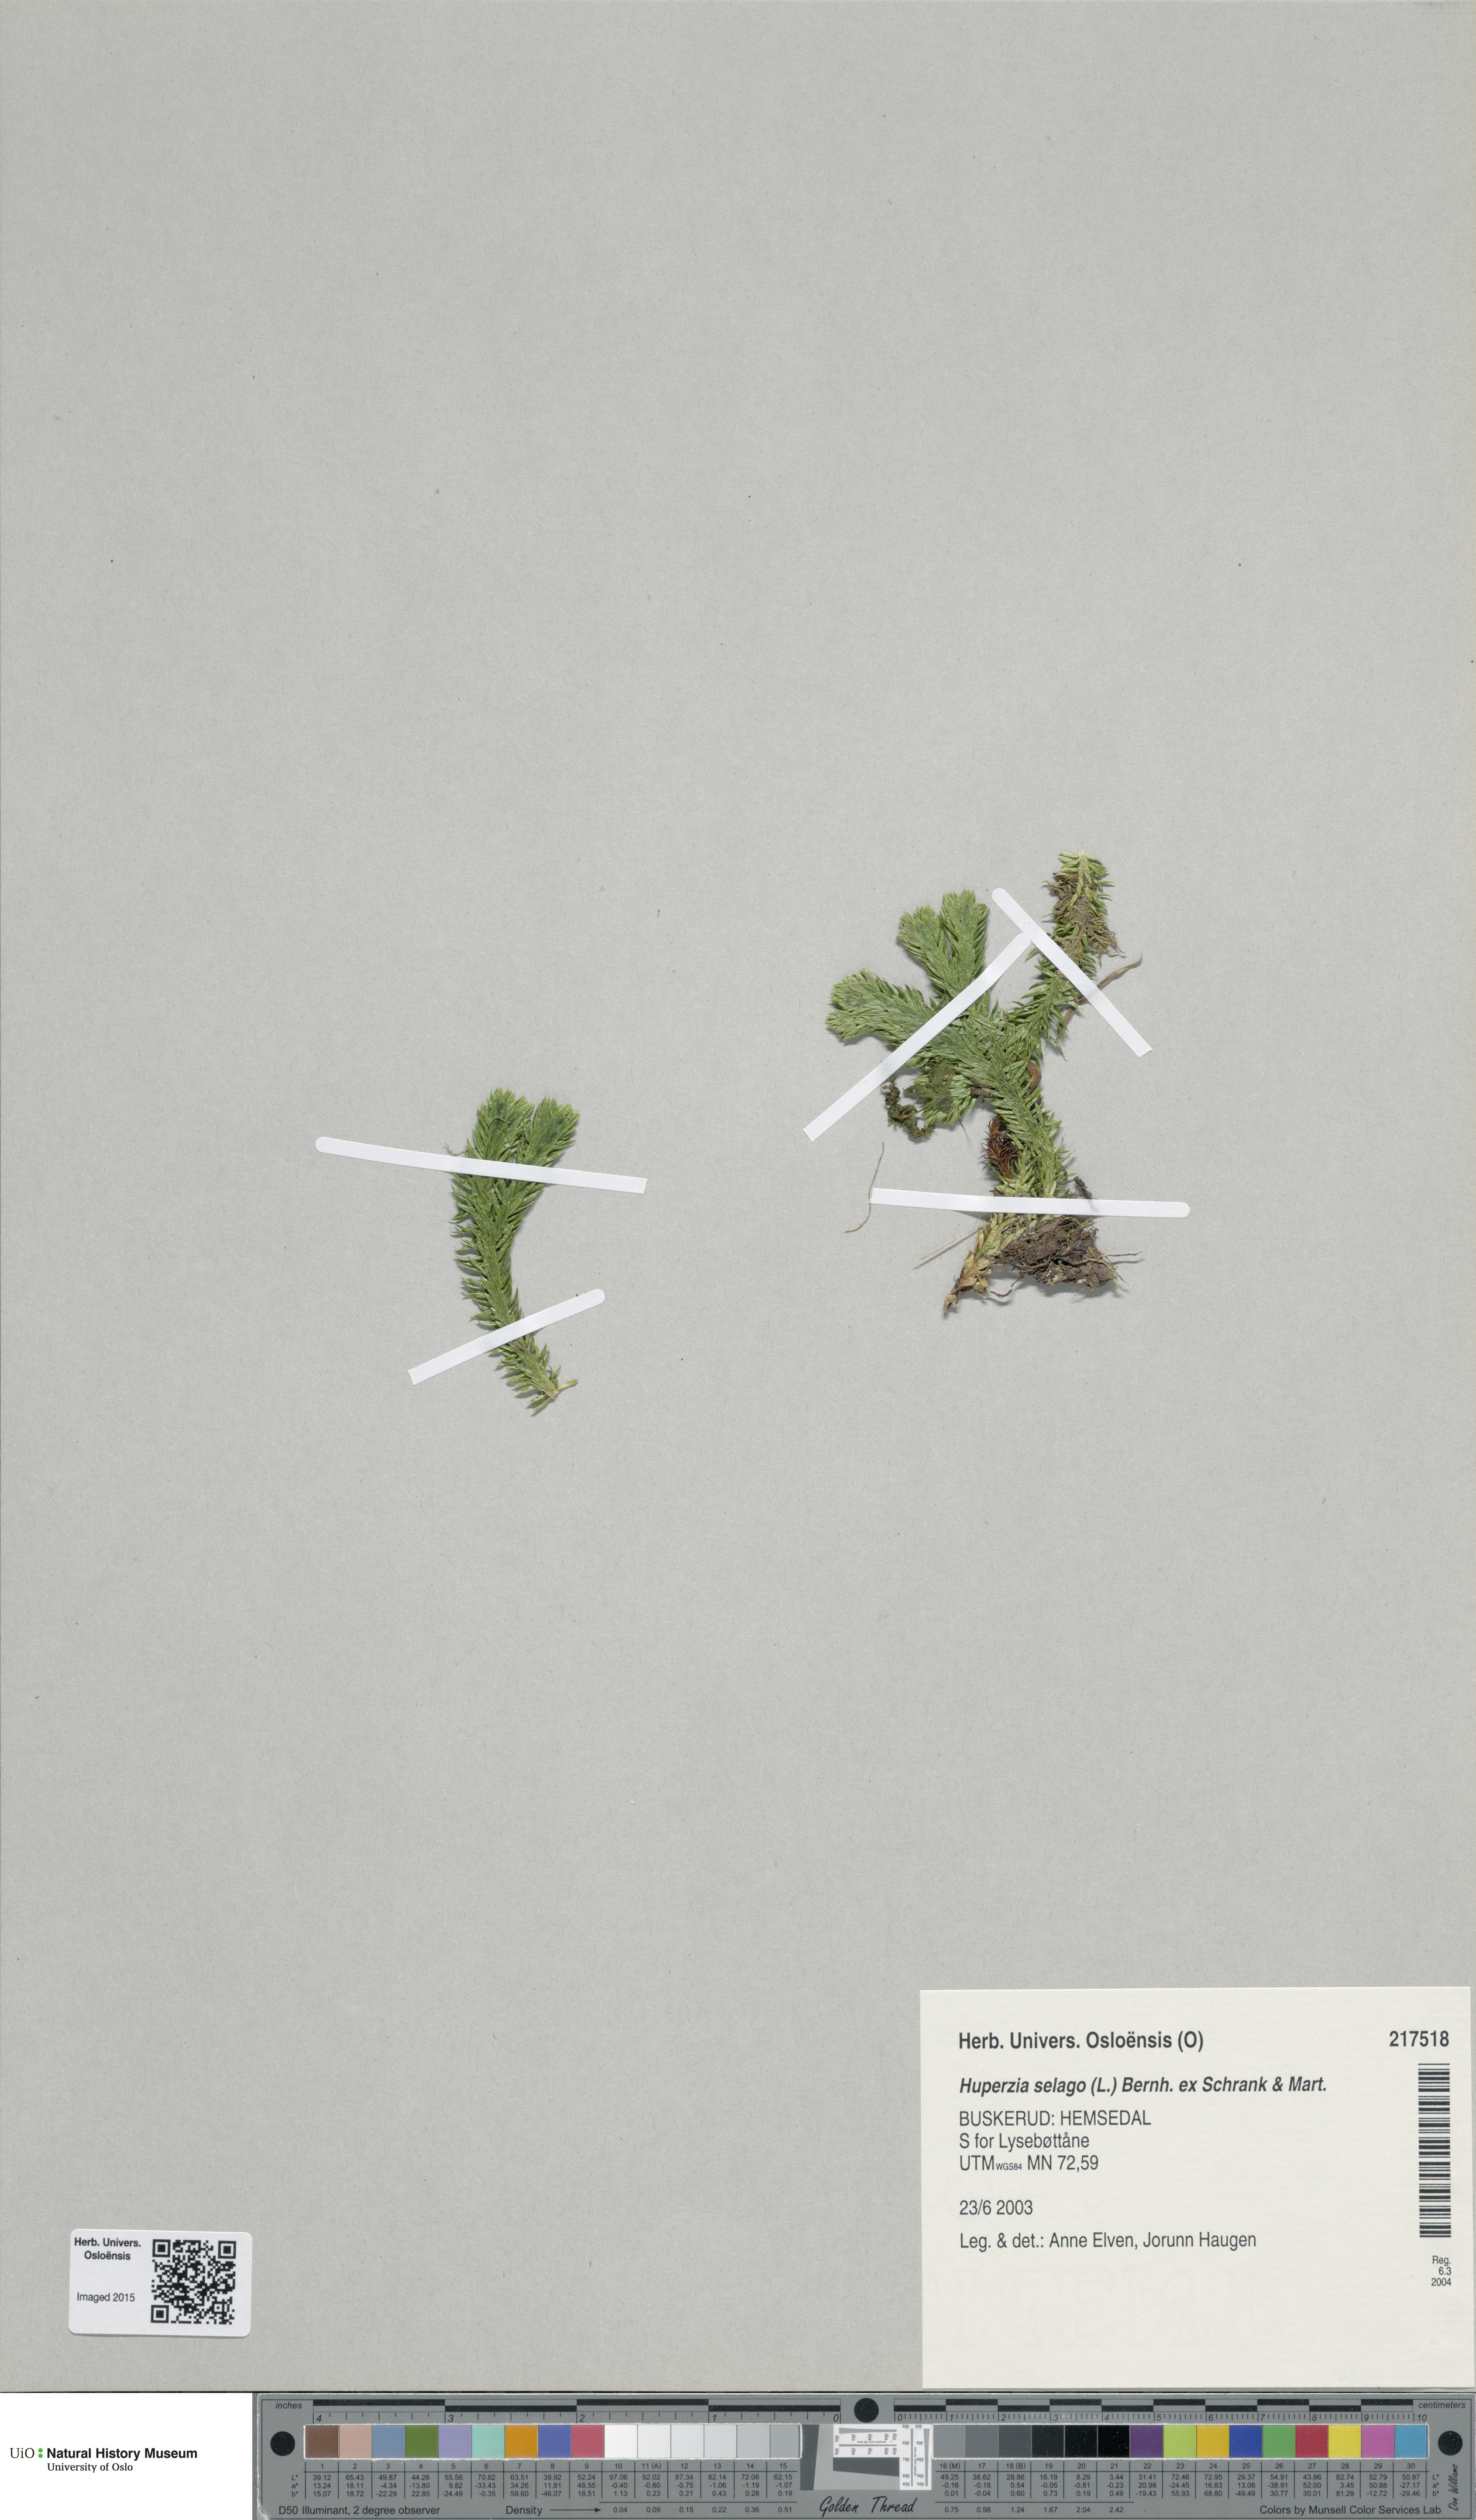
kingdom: Plantae
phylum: Tracheophyta
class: Lycopodiopsida
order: Lycopodiales
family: Lycopodiaceae
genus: Huperzia
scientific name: Huperzia selago
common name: Northern firmoss
